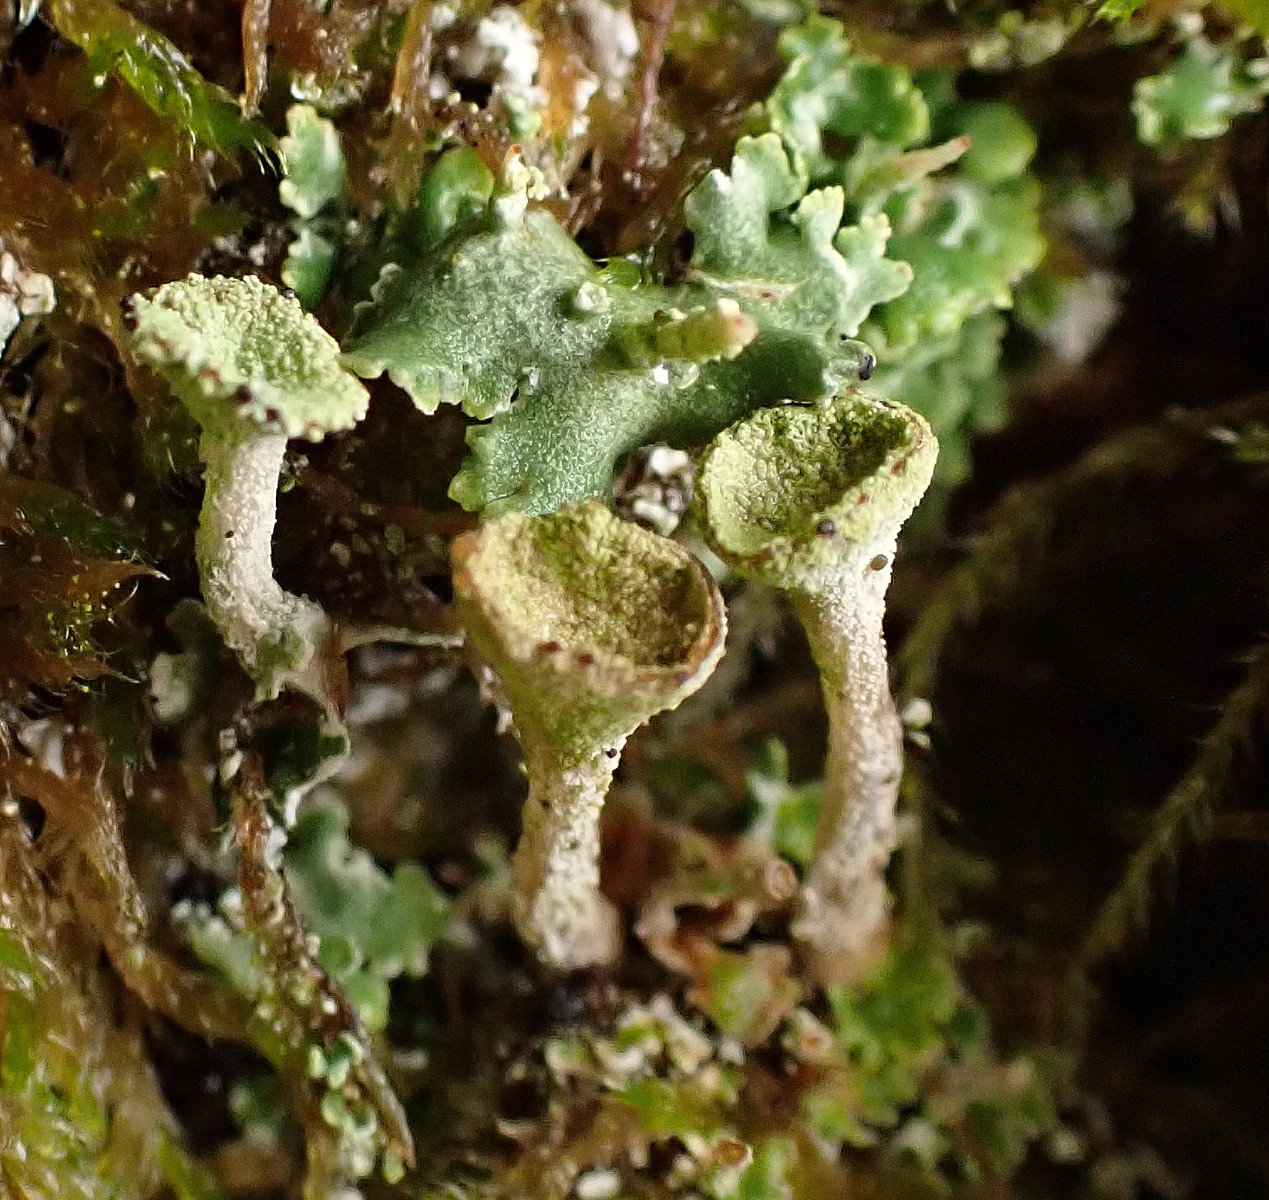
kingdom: Fungi
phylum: Ascomycota
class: Lecanoromycetes
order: Lecanorales
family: Cladoniaceae
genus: Cladonia
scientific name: Cladonia
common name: brungrøn bægerlav
